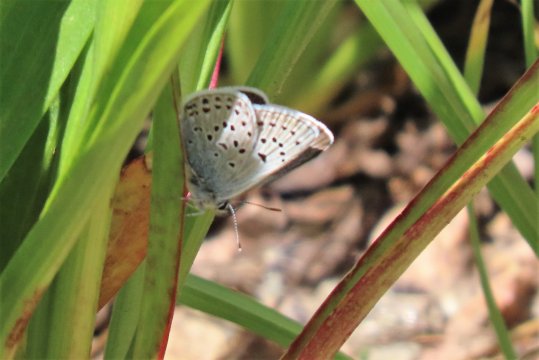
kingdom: Animalia
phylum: Arthropoda
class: Insecta
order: Lepidoptera
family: Lycaenidae
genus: Plebejus
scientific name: Plebejus saepiolus
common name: Greenish Blue
